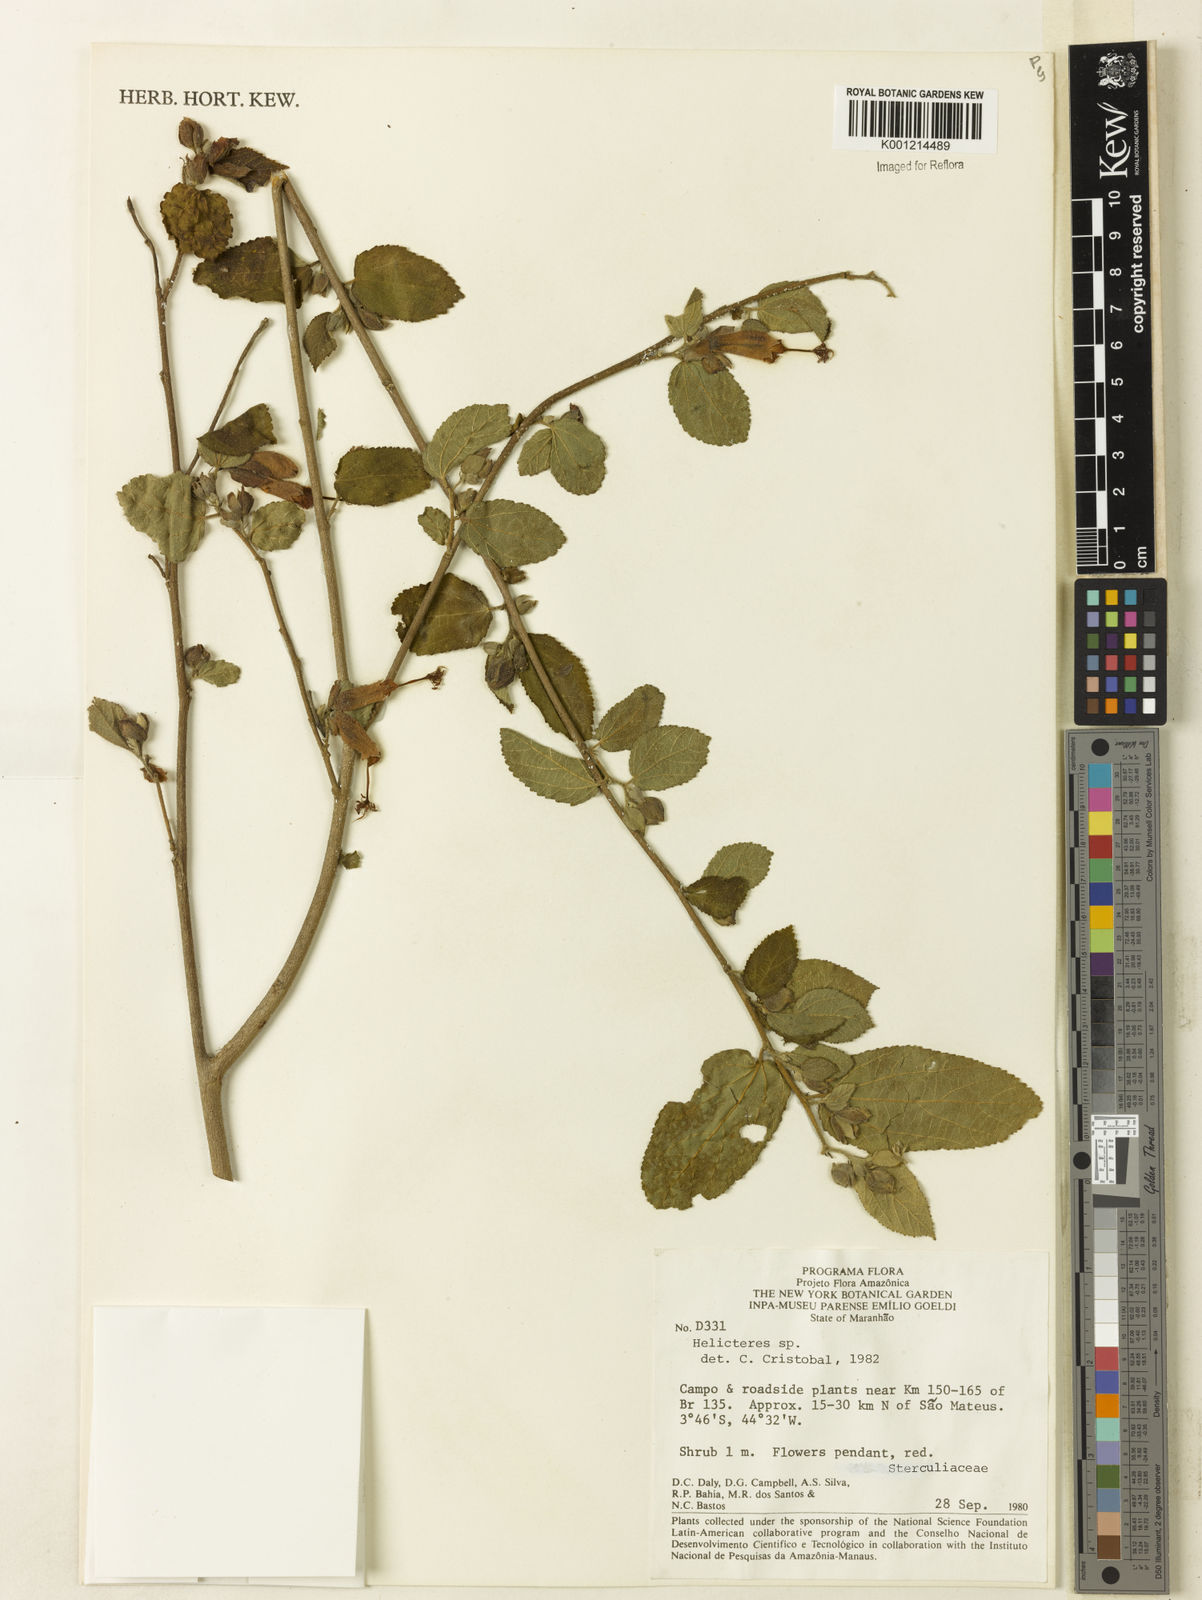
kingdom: Plantae
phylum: Tracheophyta
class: Magnoliopsida
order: Malvales
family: Malvaceae
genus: Helicteres
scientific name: Helicteres
